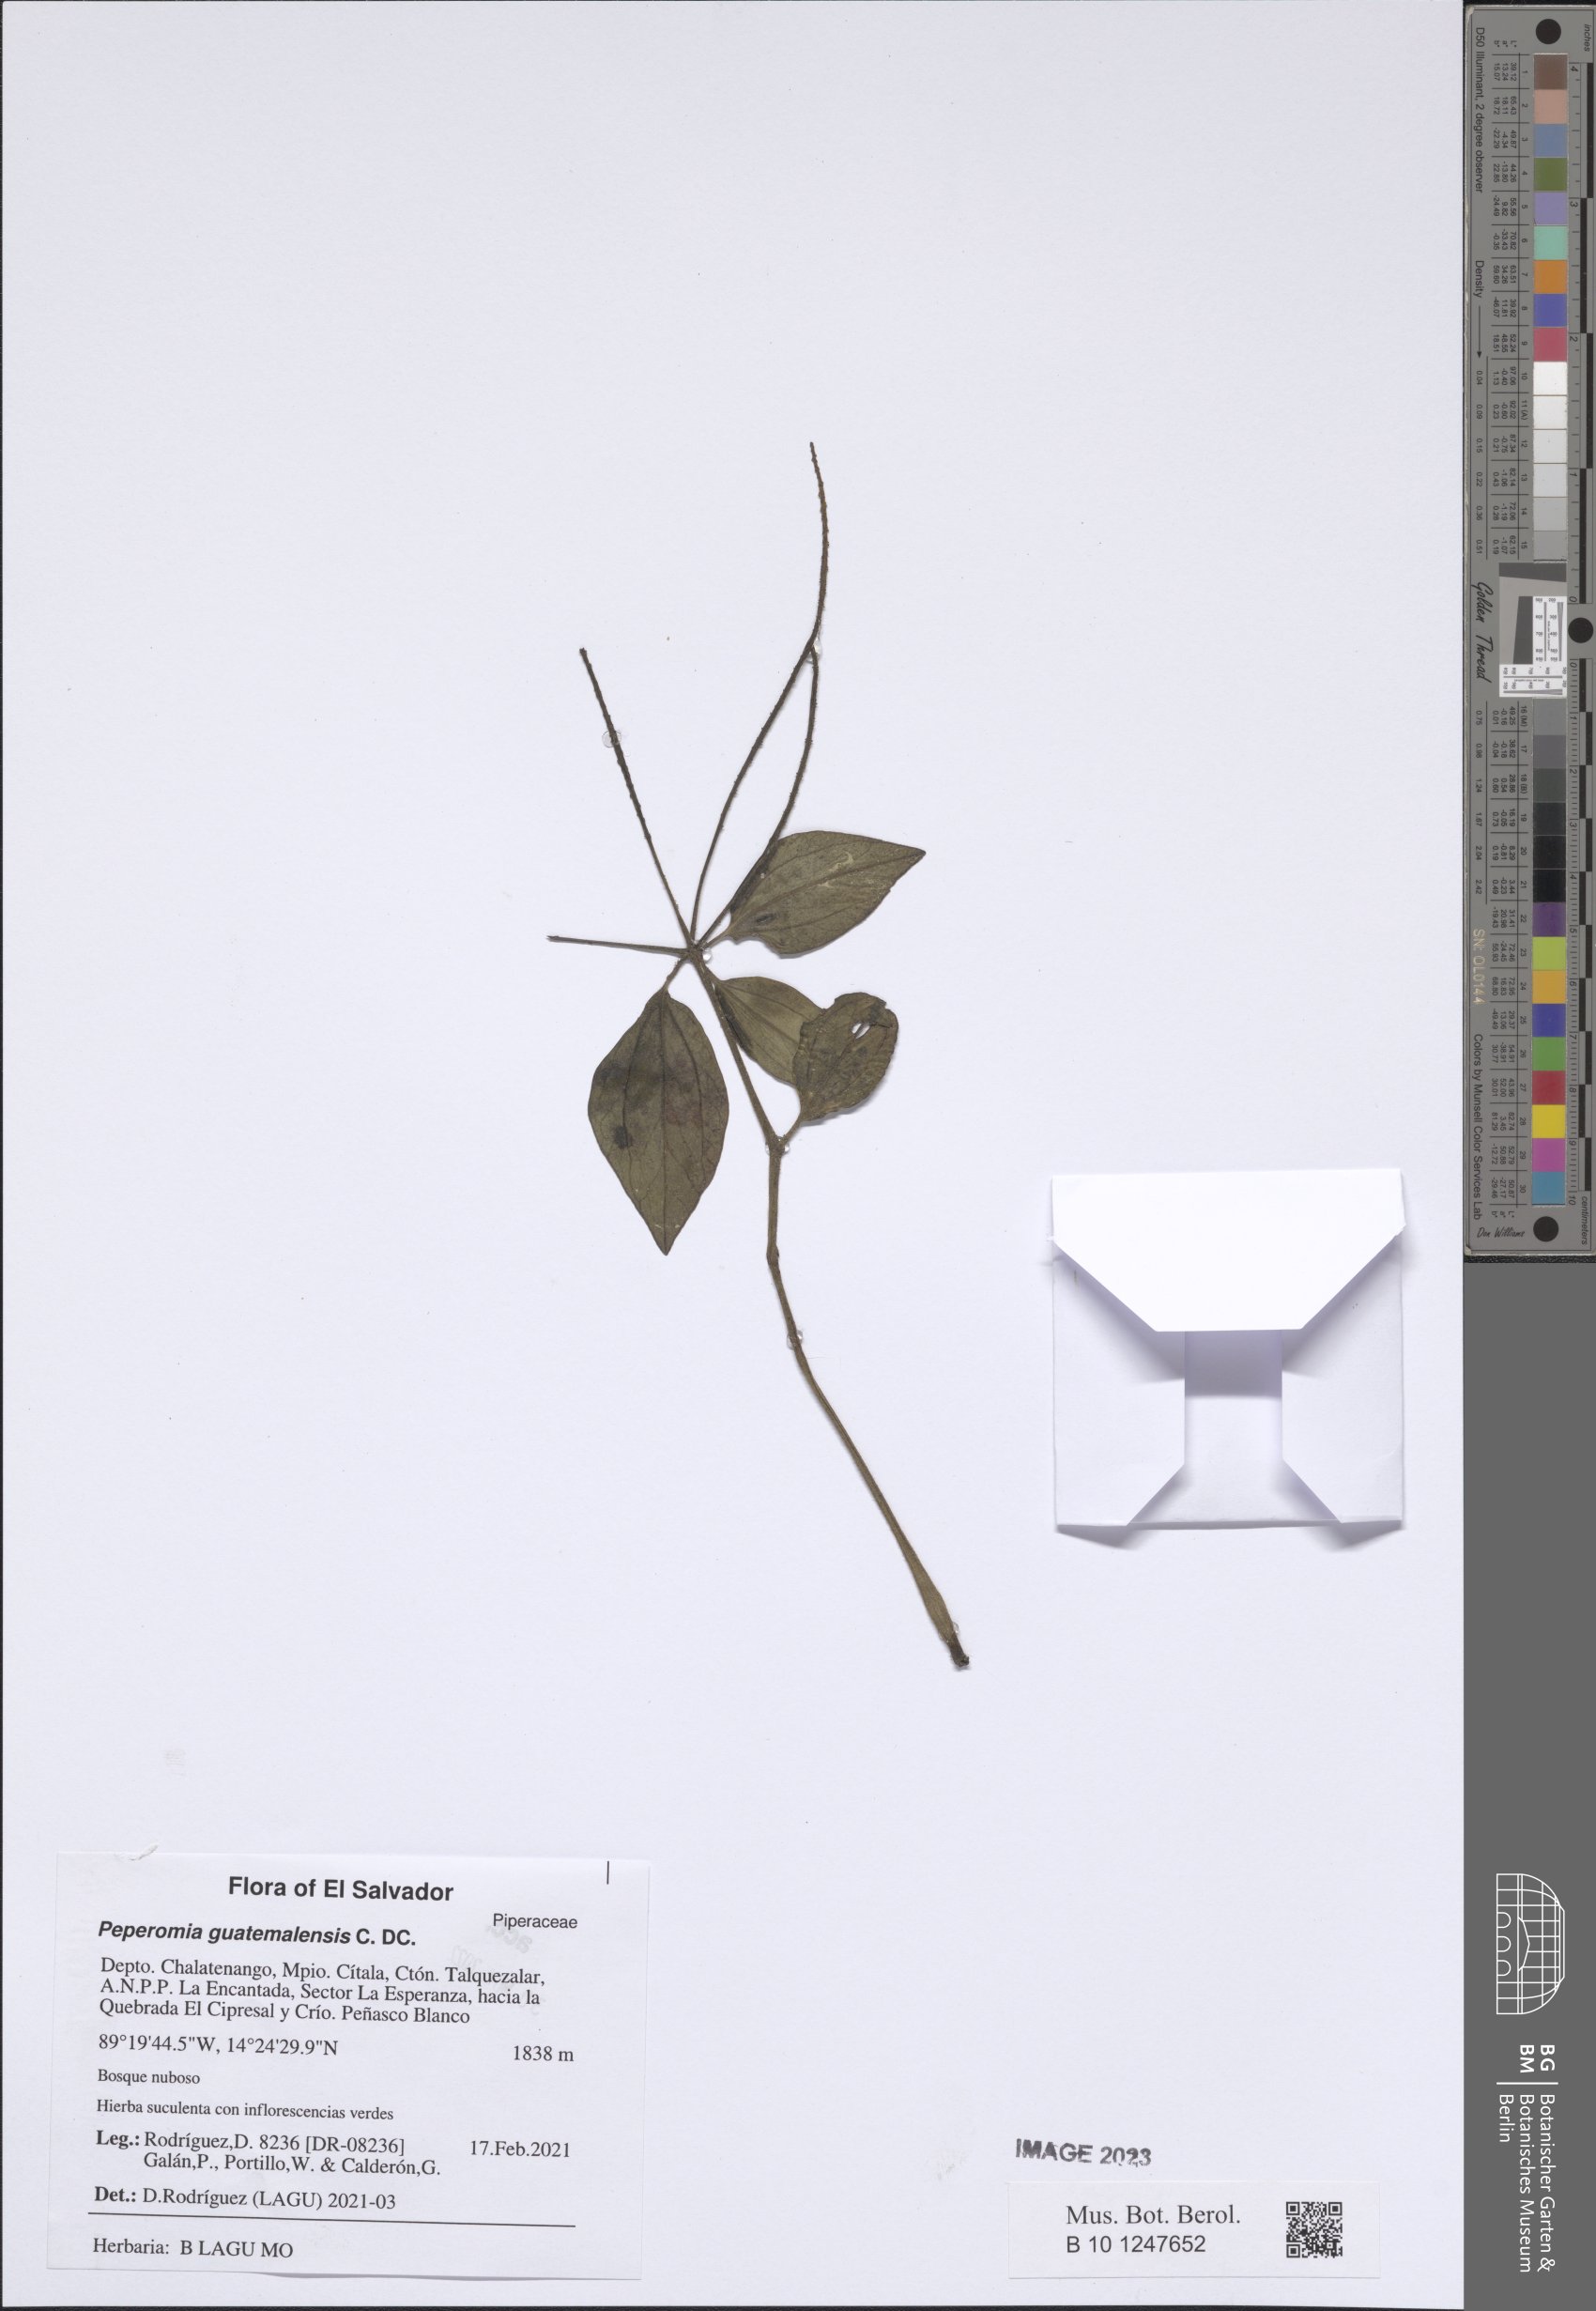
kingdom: Plantae
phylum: Tracheophyta
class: Magnoliopsida
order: Piperales
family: Piperaceae
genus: Peperomia
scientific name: Peperomia guatemalensis
